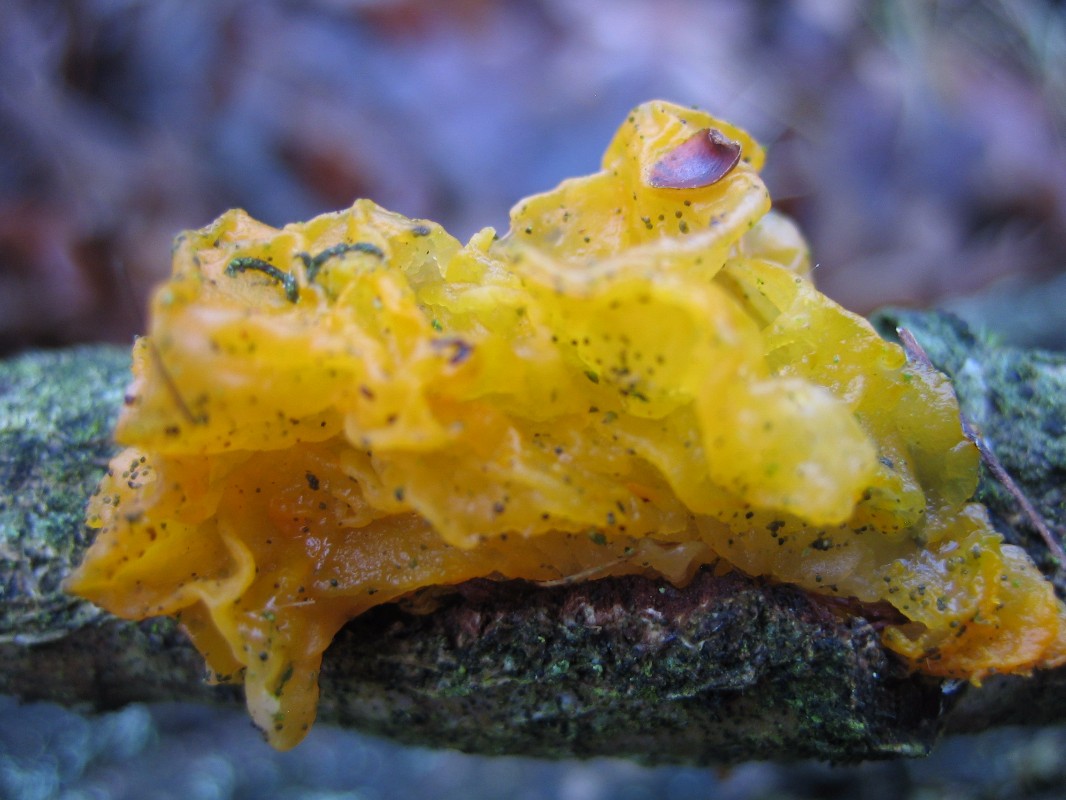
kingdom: Fungi
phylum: Basidiomycota
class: Tremellomycetes
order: Tremellales
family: Tremellaceae
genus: Tremella
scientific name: Tremella mesenterica
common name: gul bævresvamp
